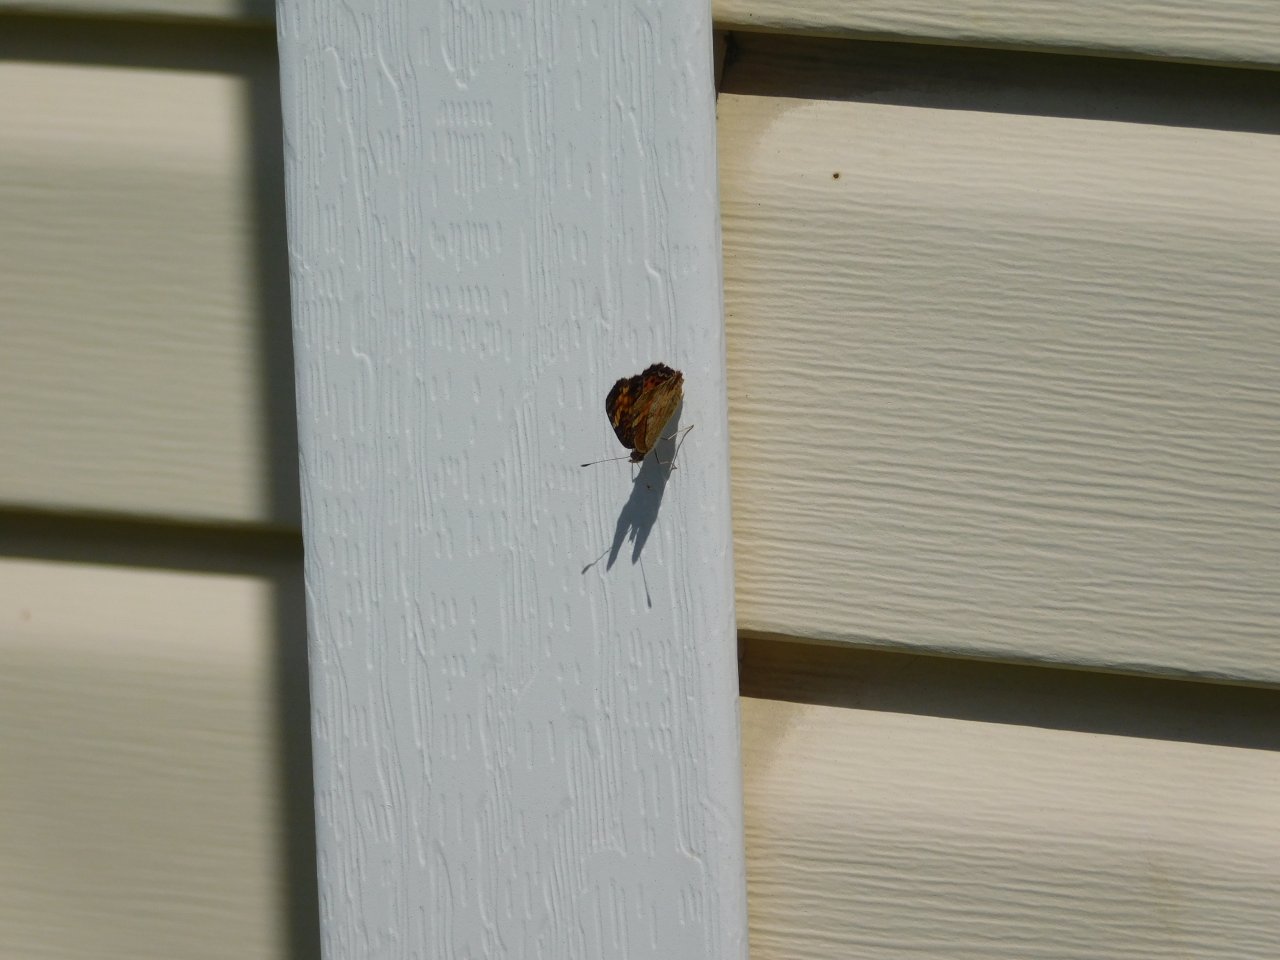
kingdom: Animalia
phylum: Arthropoda
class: Insecta
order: Lepidoptera
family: Nymphalidae
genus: Phyciodes
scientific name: Phyciodes tharos
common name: Northern Crescent
